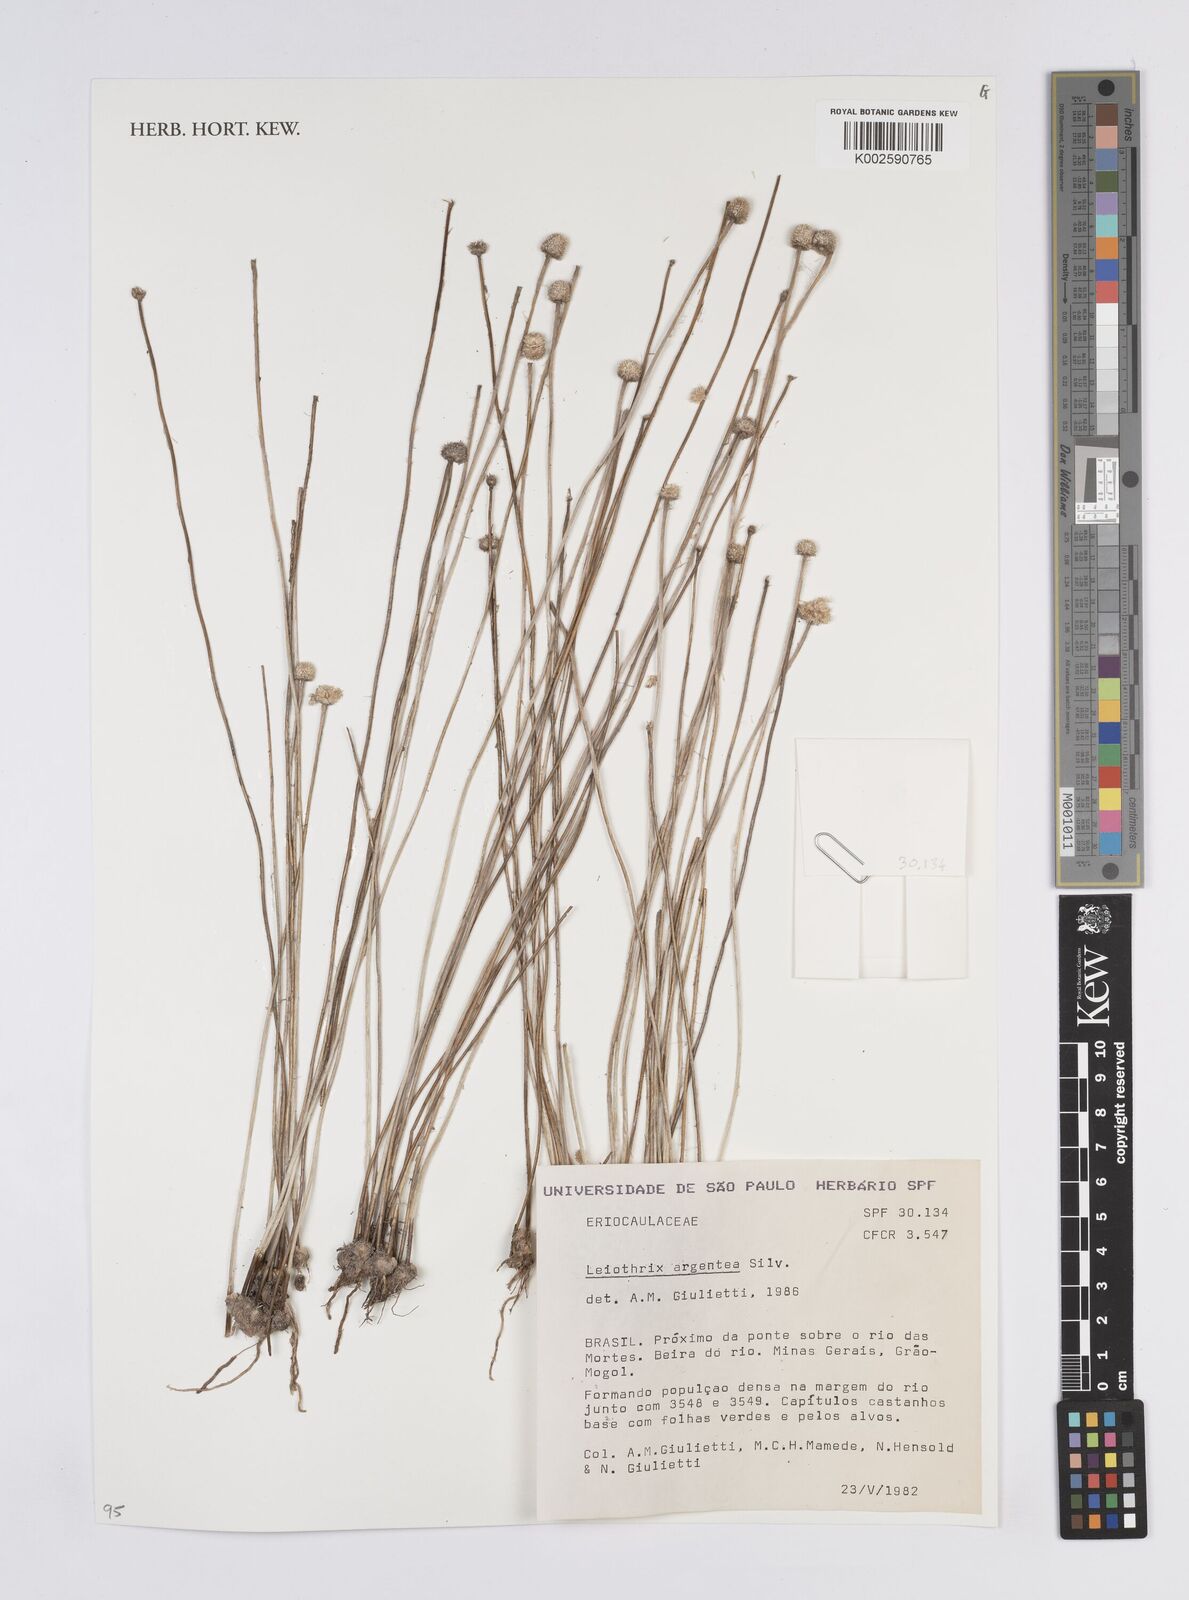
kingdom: Plantae
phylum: Tracheophyta
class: Liliopsida
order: Poales
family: Eriocaulaceae
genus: Leiothrix
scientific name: Leiothrix argentea
